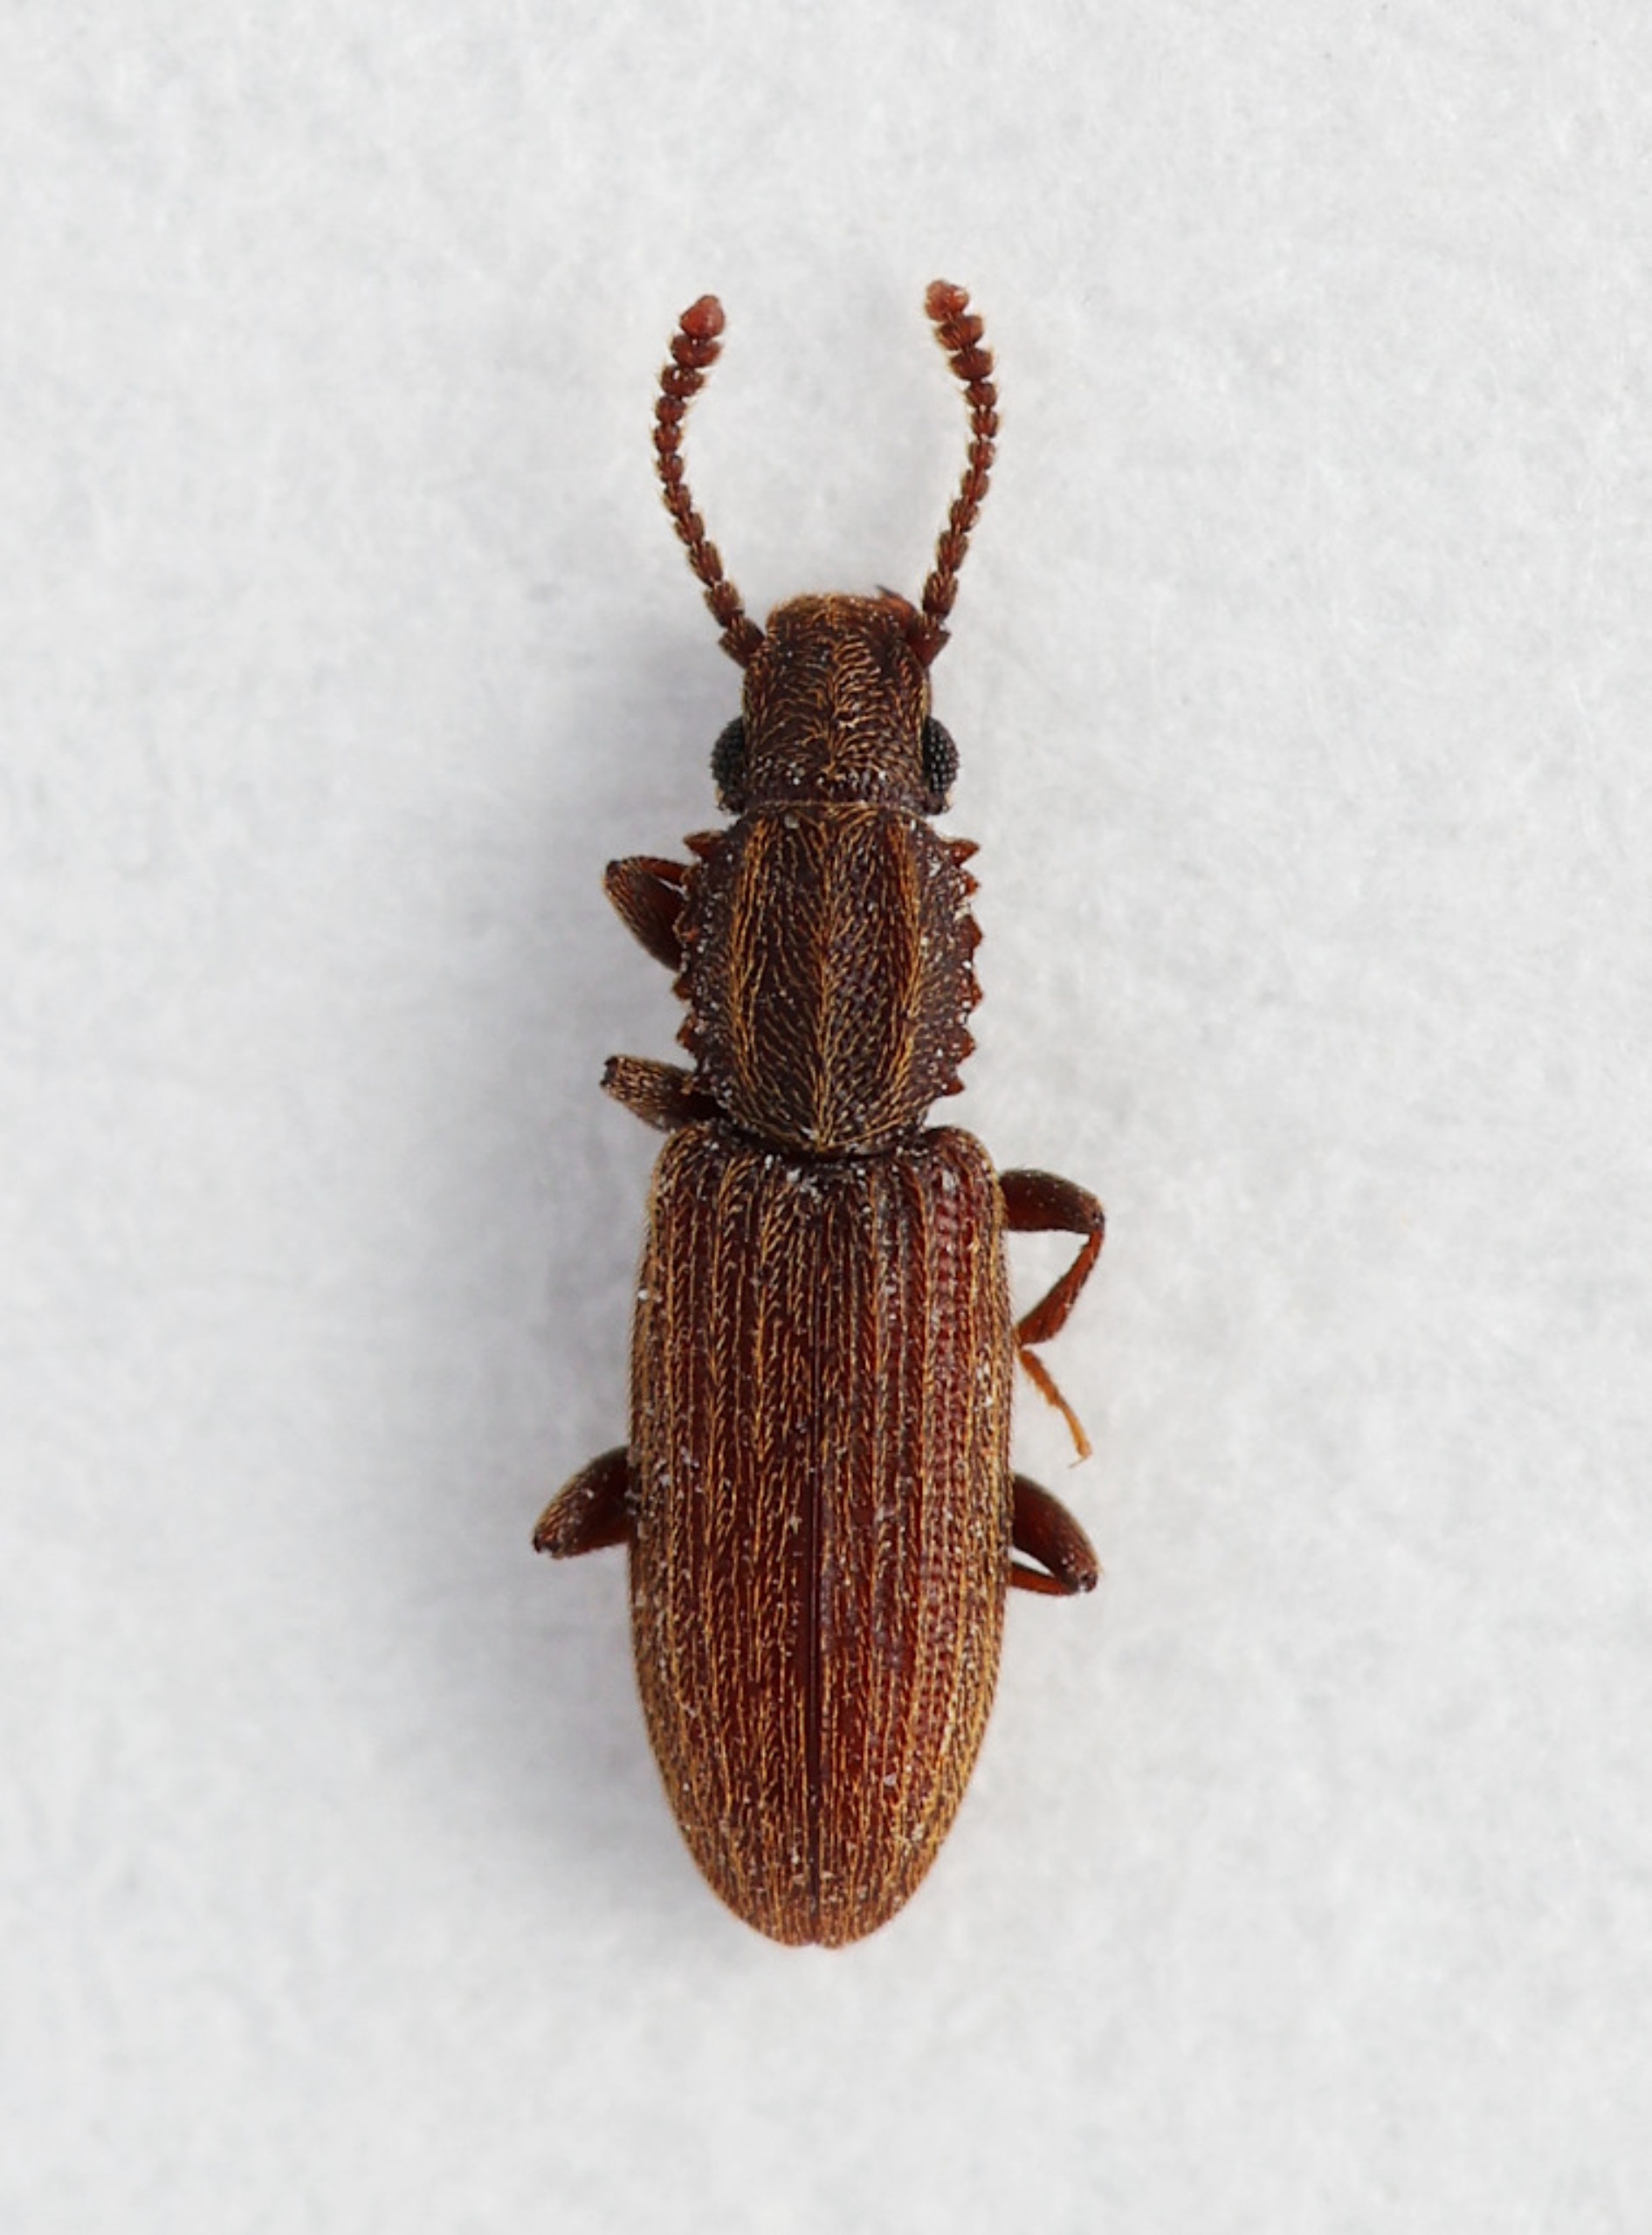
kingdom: Animalia
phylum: Arthropoda
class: Insecta
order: Coleoptera
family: Silvanidae
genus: Oryzaephilus
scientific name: Oryzaephilus mercator
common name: Jordnøddebille
